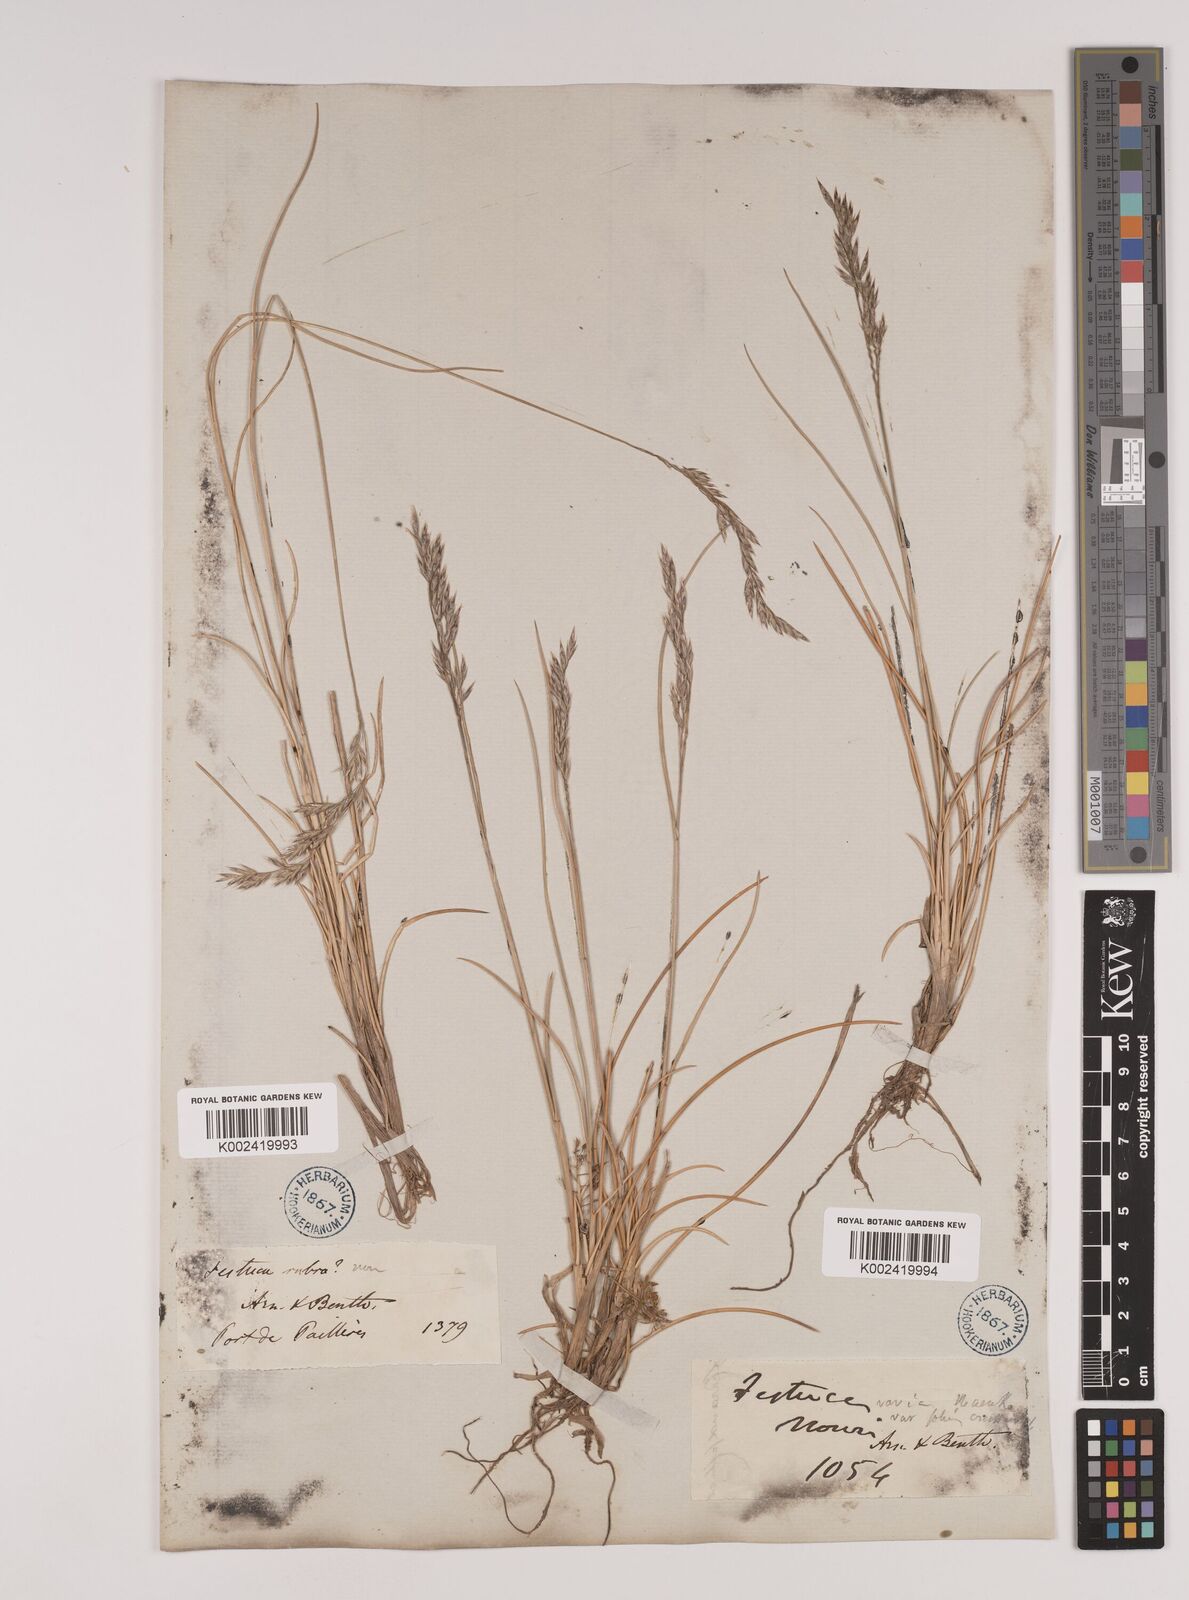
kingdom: Plantae
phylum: Tracheophyta
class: Liliopsida
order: Poales
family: Poaceae
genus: Festuca
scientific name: Festuca eskia
